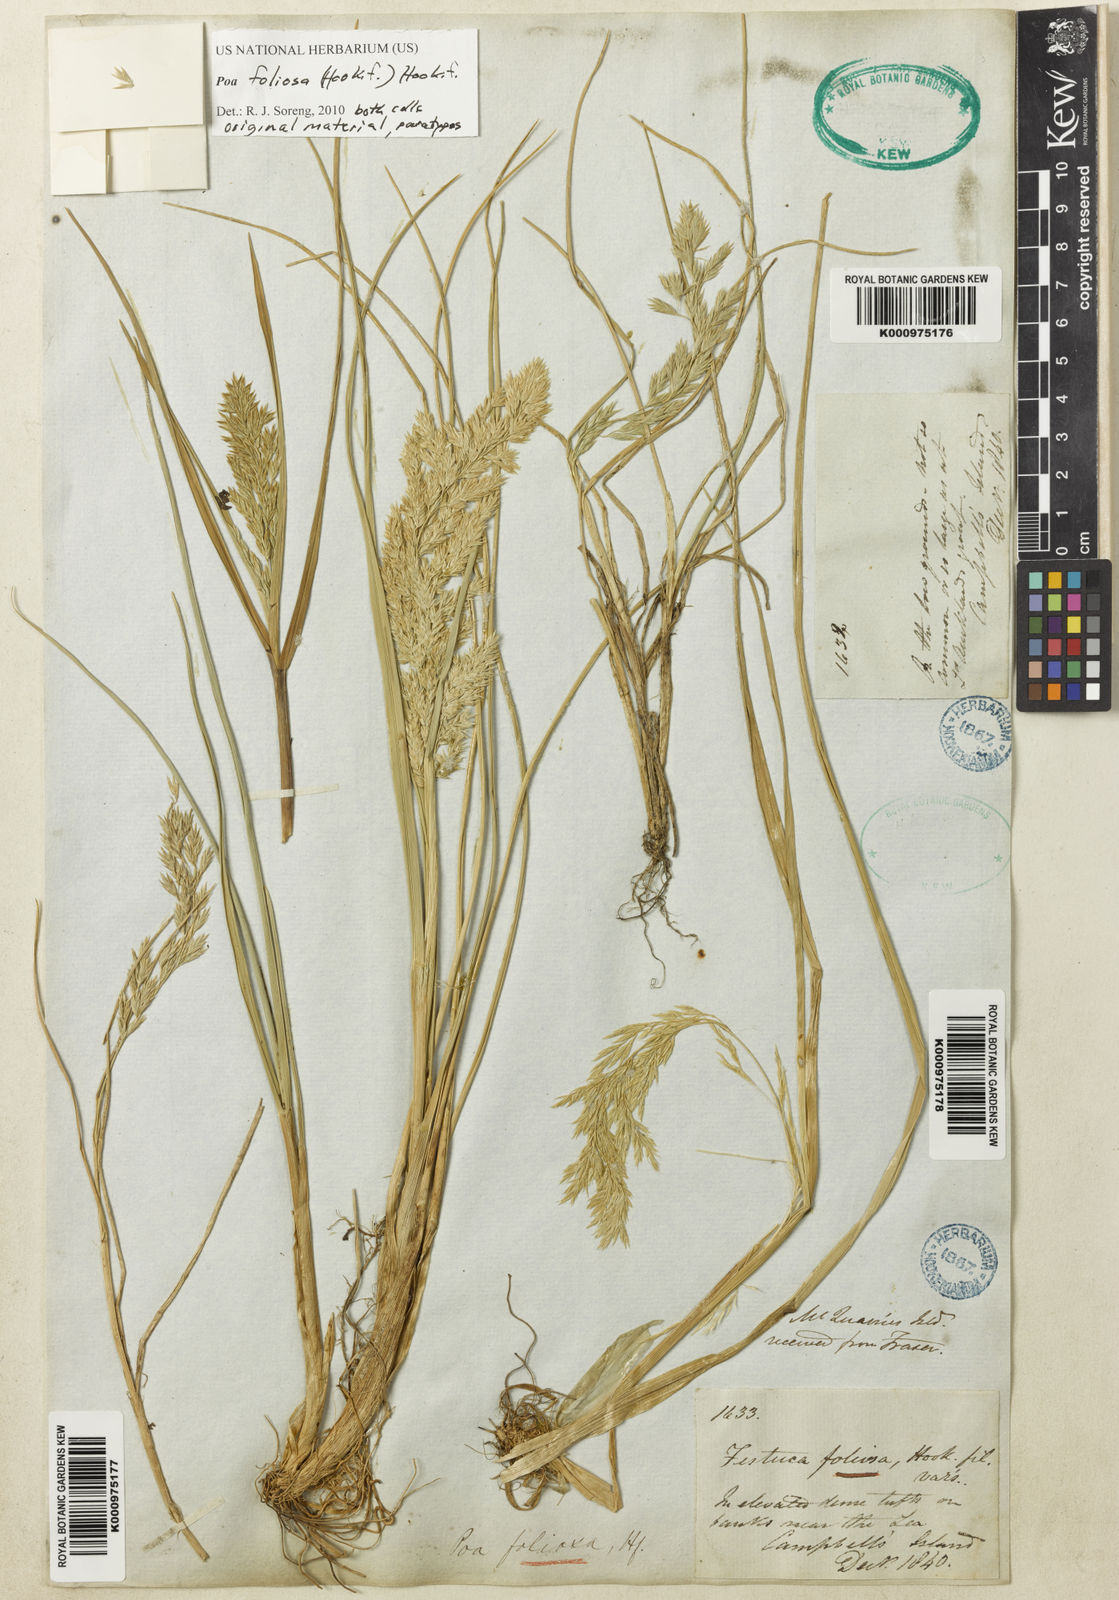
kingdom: Plantae
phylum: Tracheophyta
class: Liliopsida
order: Poales
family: Poaceae
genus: Poa
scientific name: Poa foliosa
